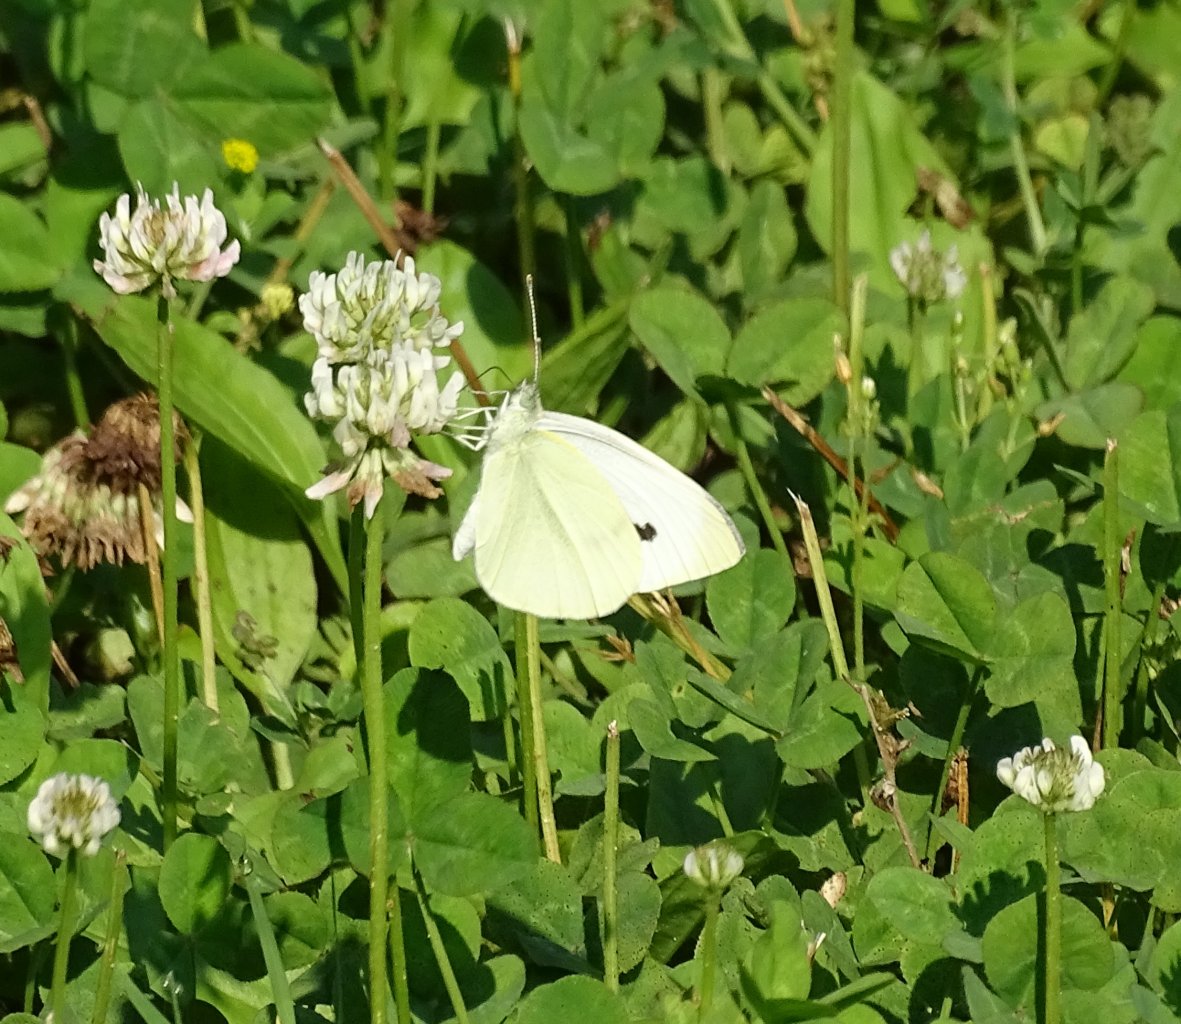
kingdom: Animalia
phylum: Arthropoda
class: Insecta
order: Lepidoptera
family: Pieridae
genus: Pieris
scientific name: Pieris rapae
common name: Cabbage White
